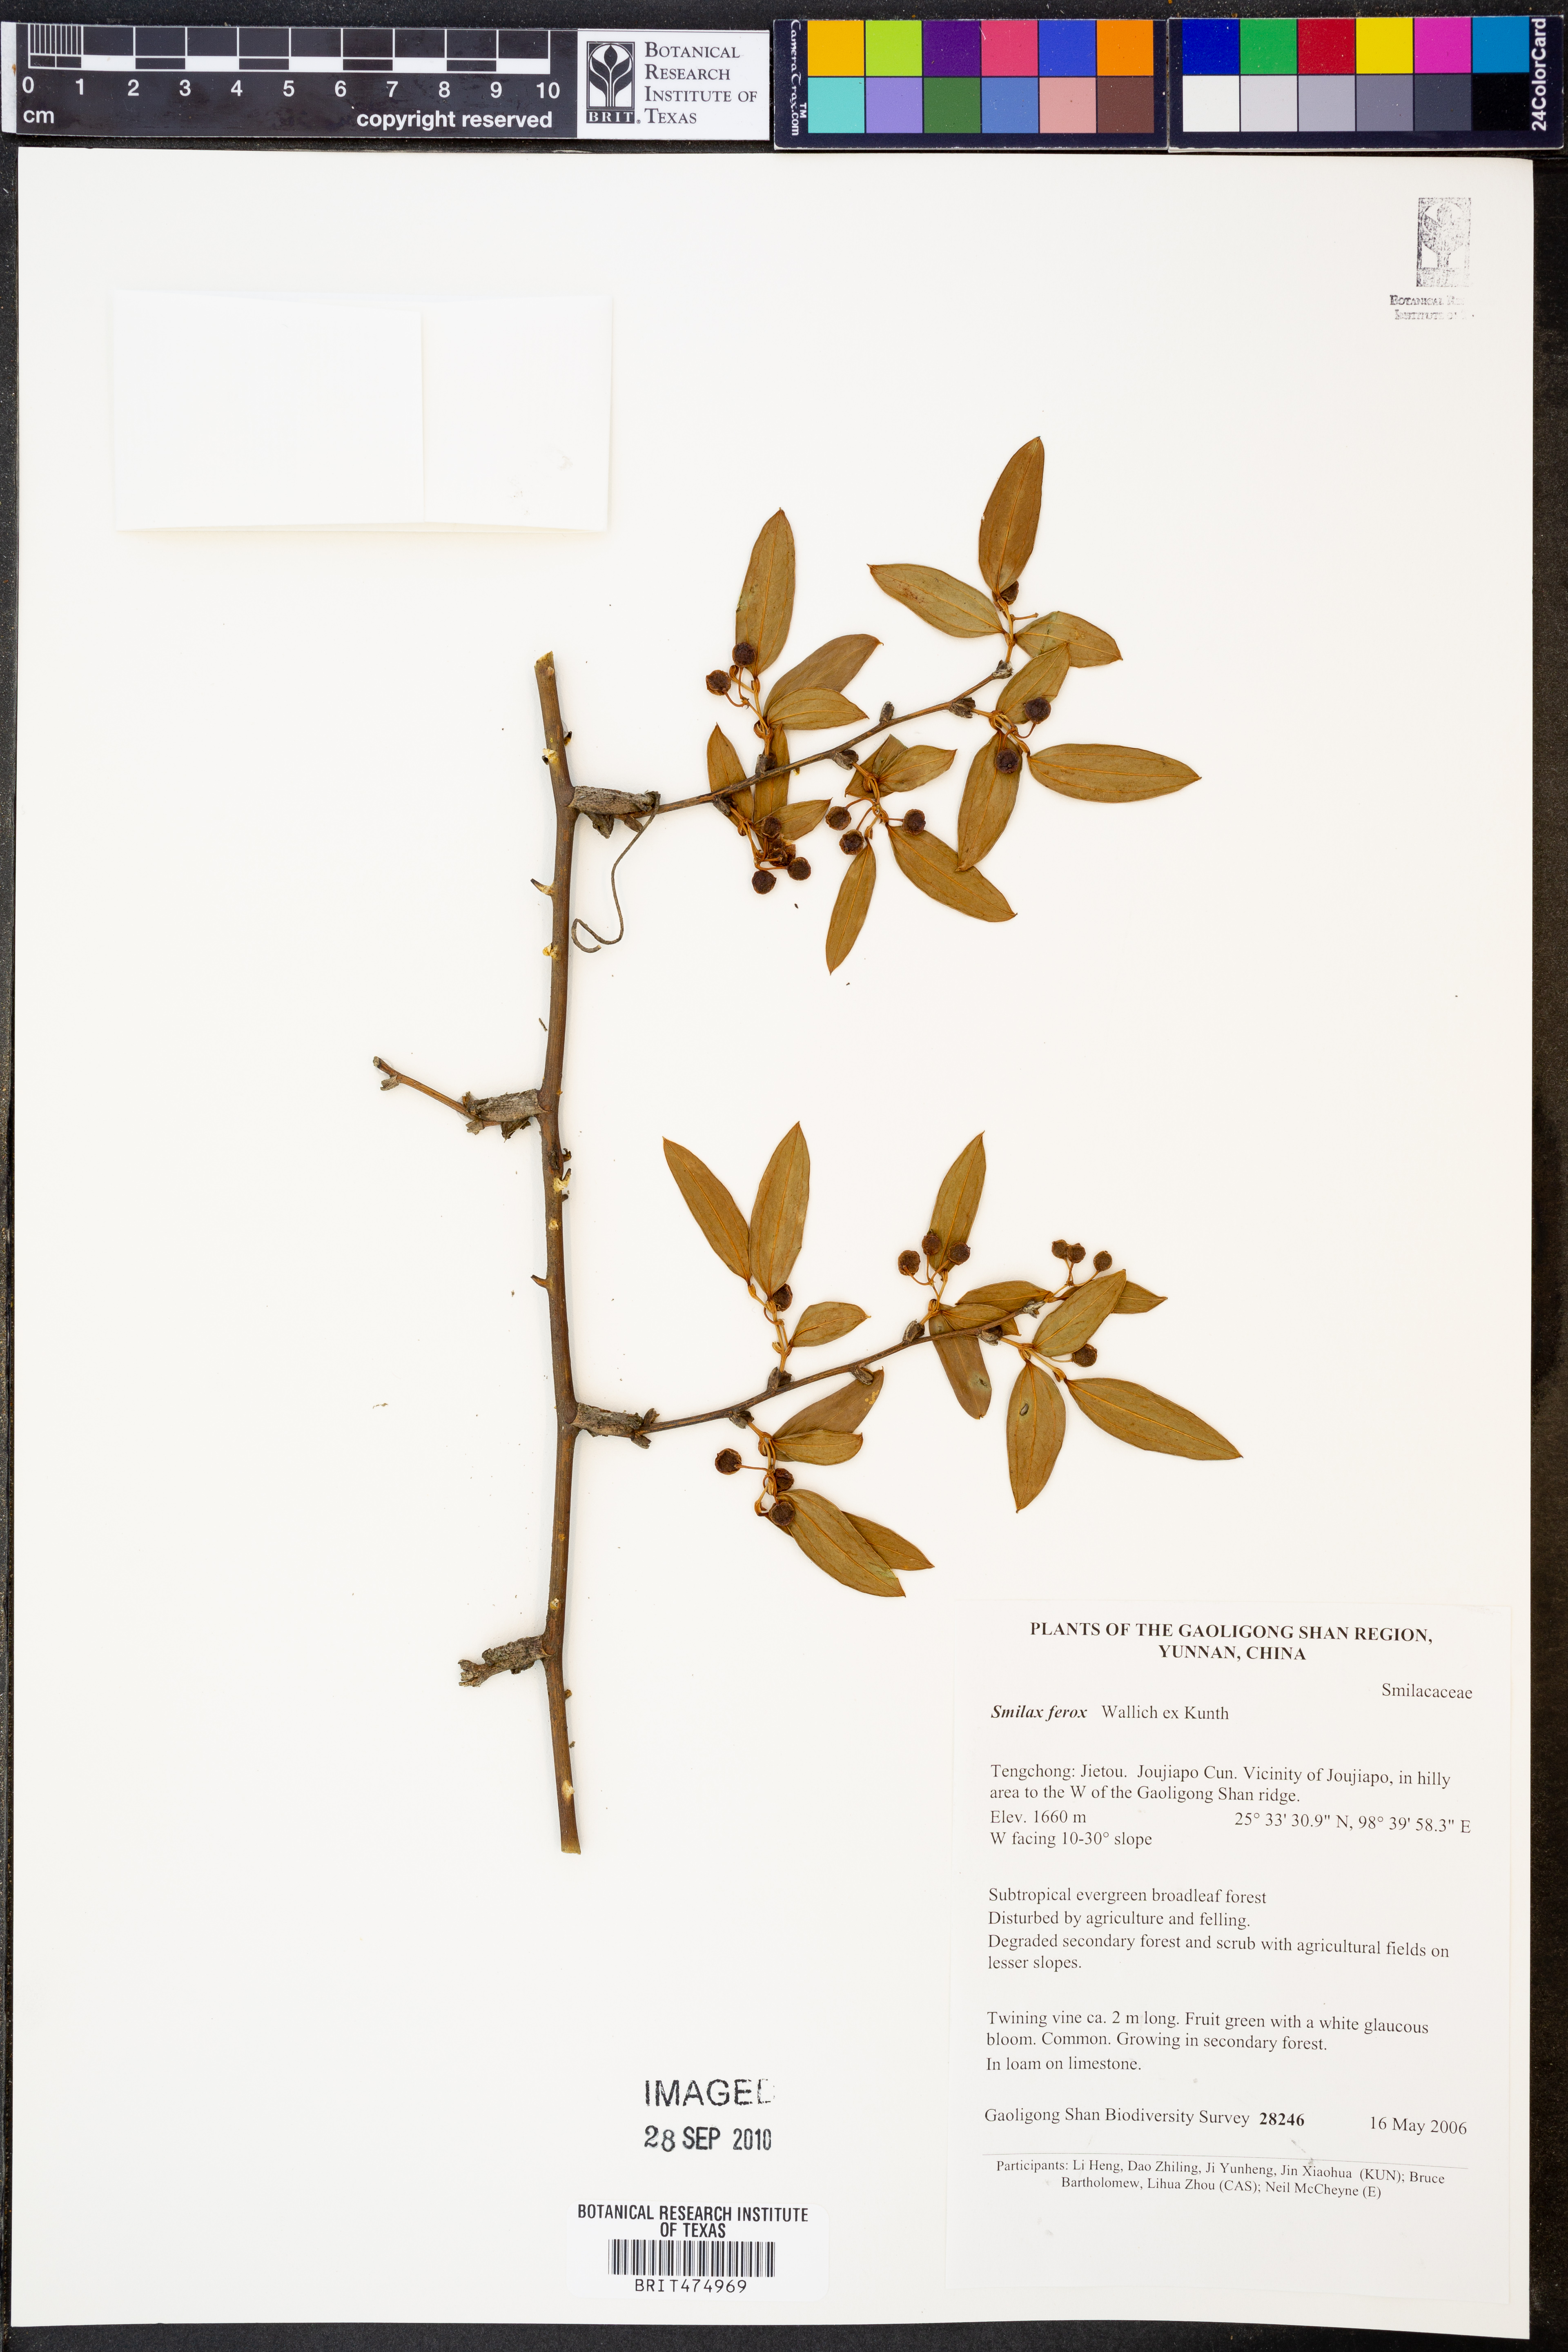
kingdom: Plantae
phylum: Tracheophyta
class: Liliopsida
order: Liliales
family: Smilacaceae
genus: Smilax
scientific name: Smilax ferox
